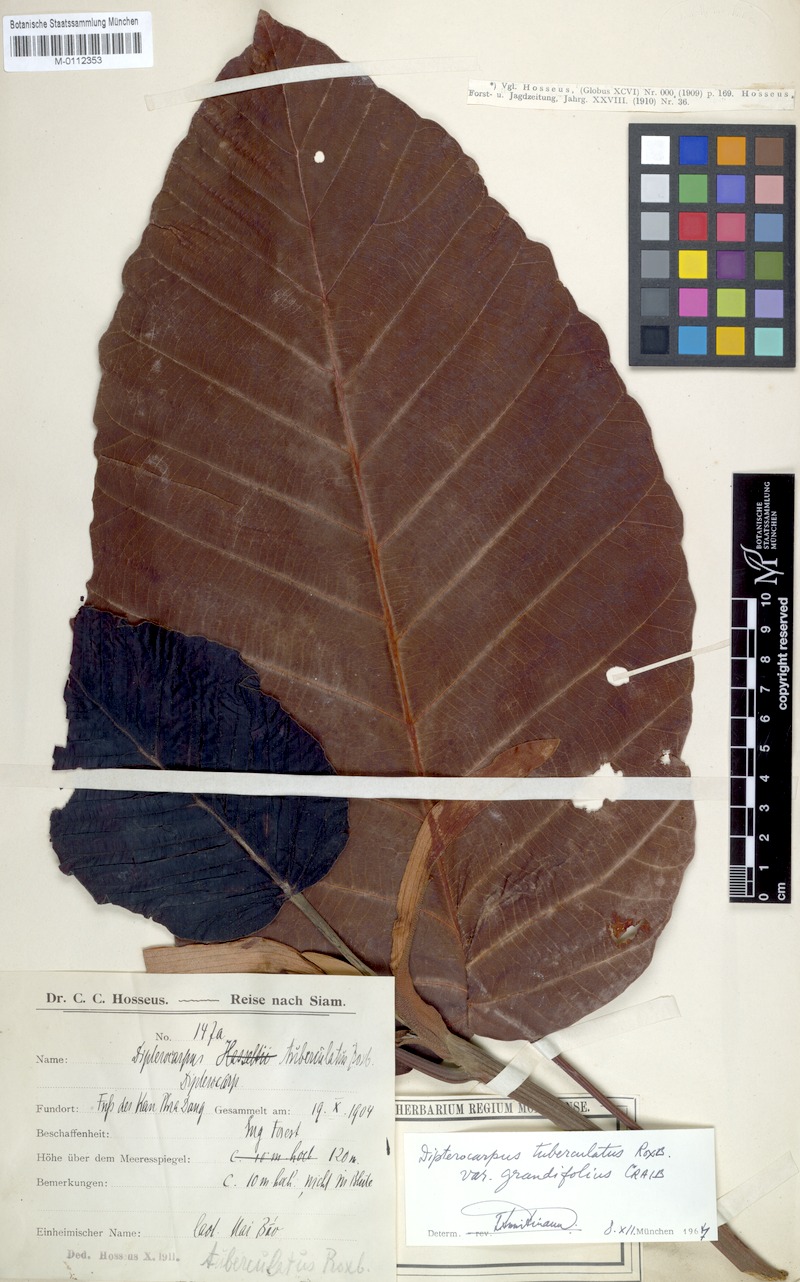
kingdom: Plantae
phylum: Tracheophyta
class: Magnoliopsida
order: Malvales
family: Dipterocarpaceae
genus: Dipterocarpus
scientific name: Dipterocarpus tuberculatus
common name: Eng gurjuntree
